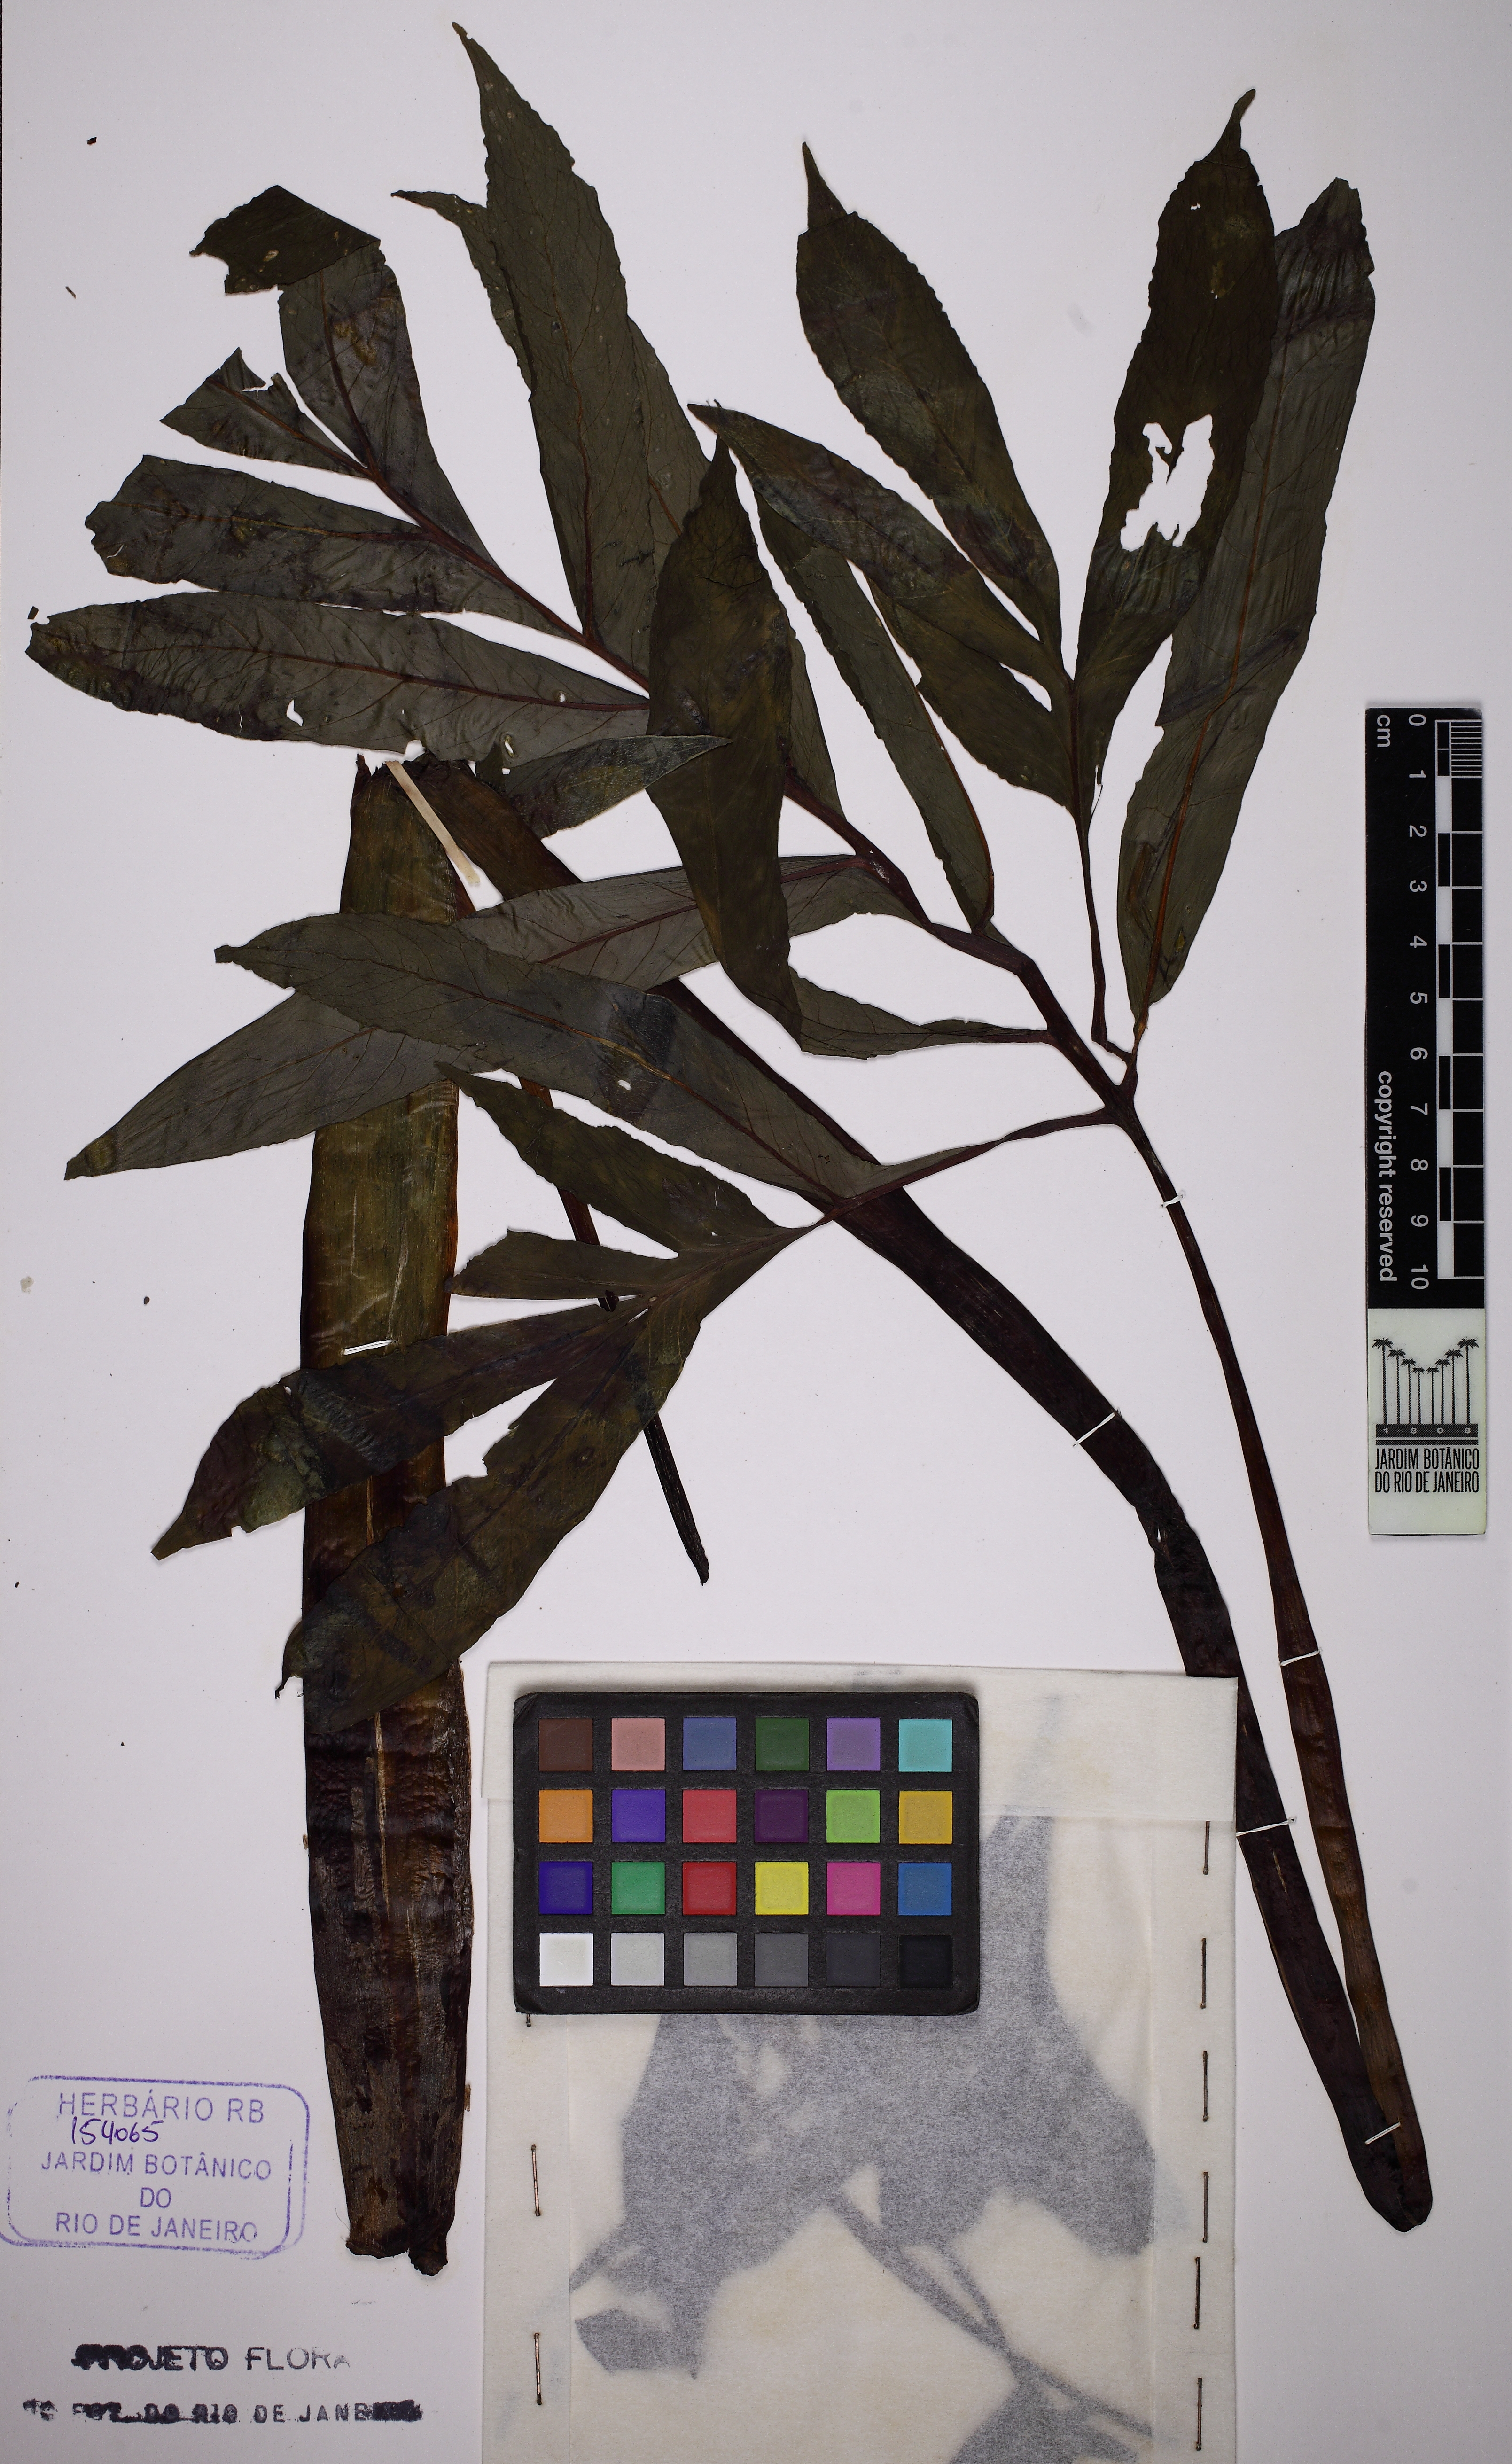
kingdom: Plantae
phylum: Tracheophyta
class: Liliopsida
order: Alismatales
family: Araceae
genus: Asterostigma
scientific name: Asterostigma luridum
